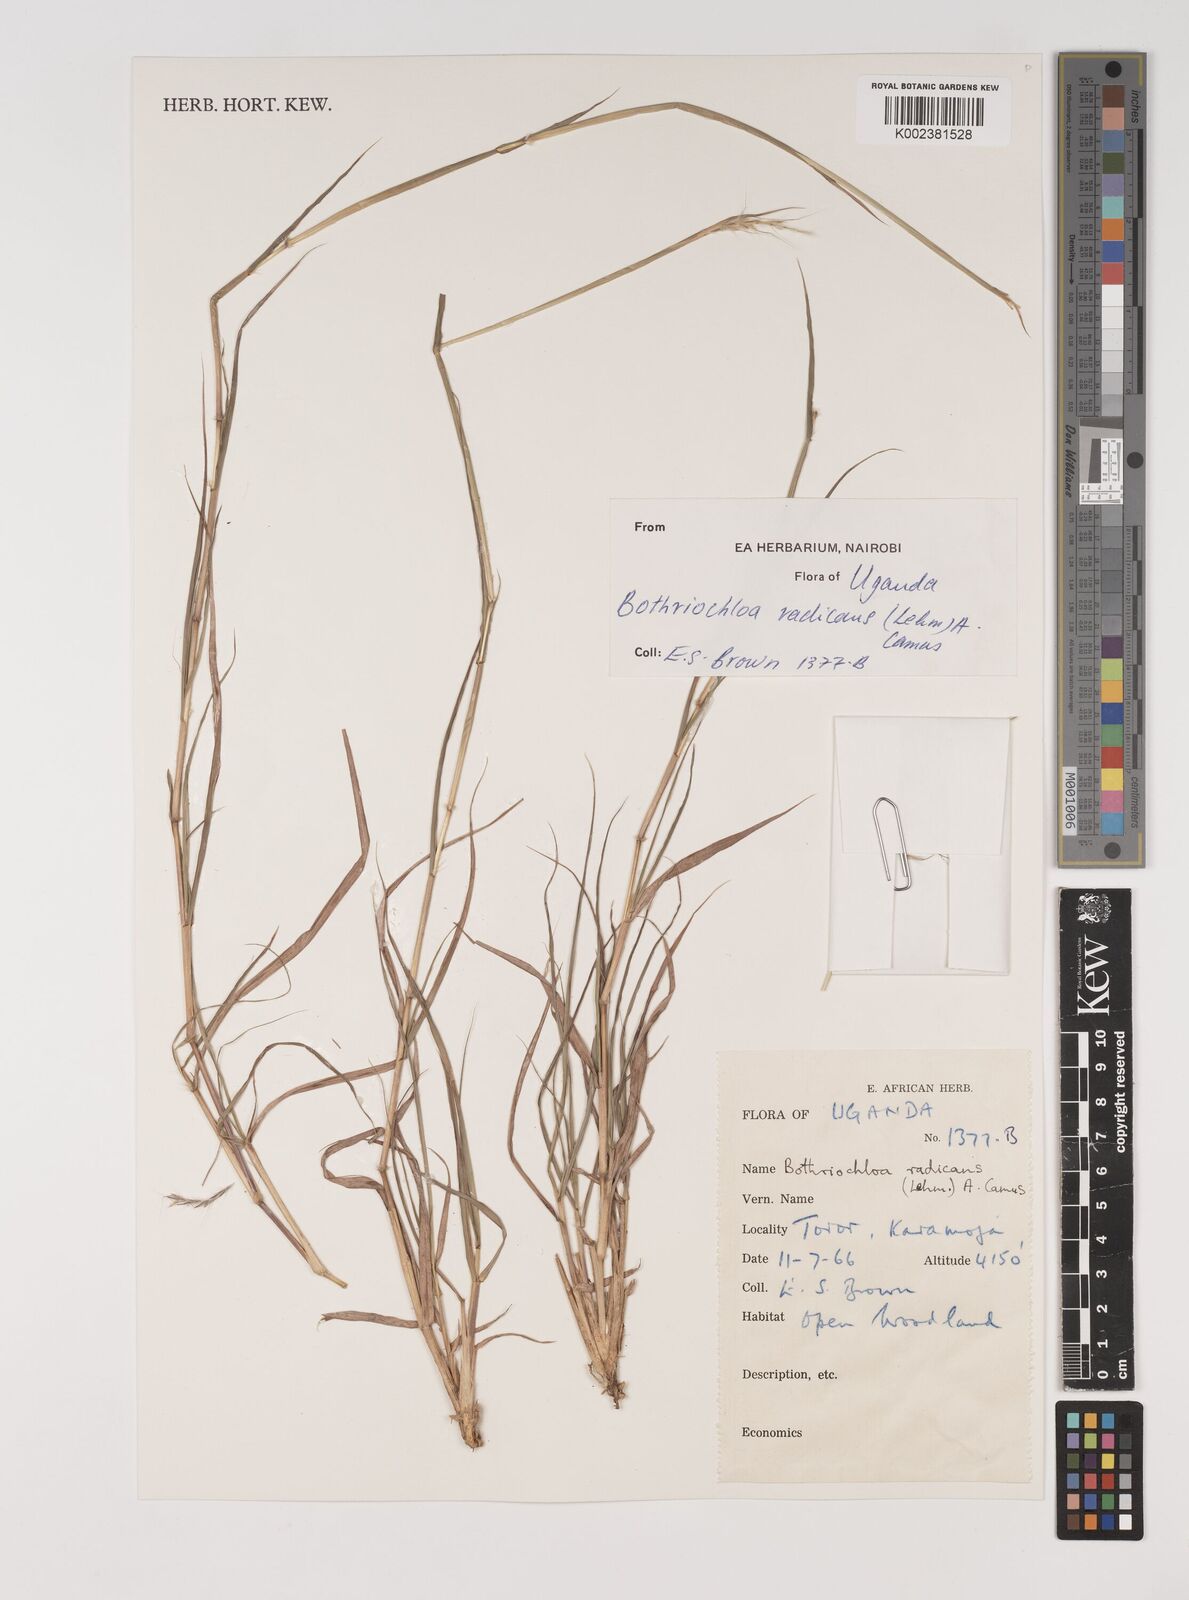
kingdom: Plantae
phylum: Tracheophyta
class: Liliopsida
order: Poales
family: Poaceae
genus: Bothriochloa
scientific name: Bothriochloa radicans
